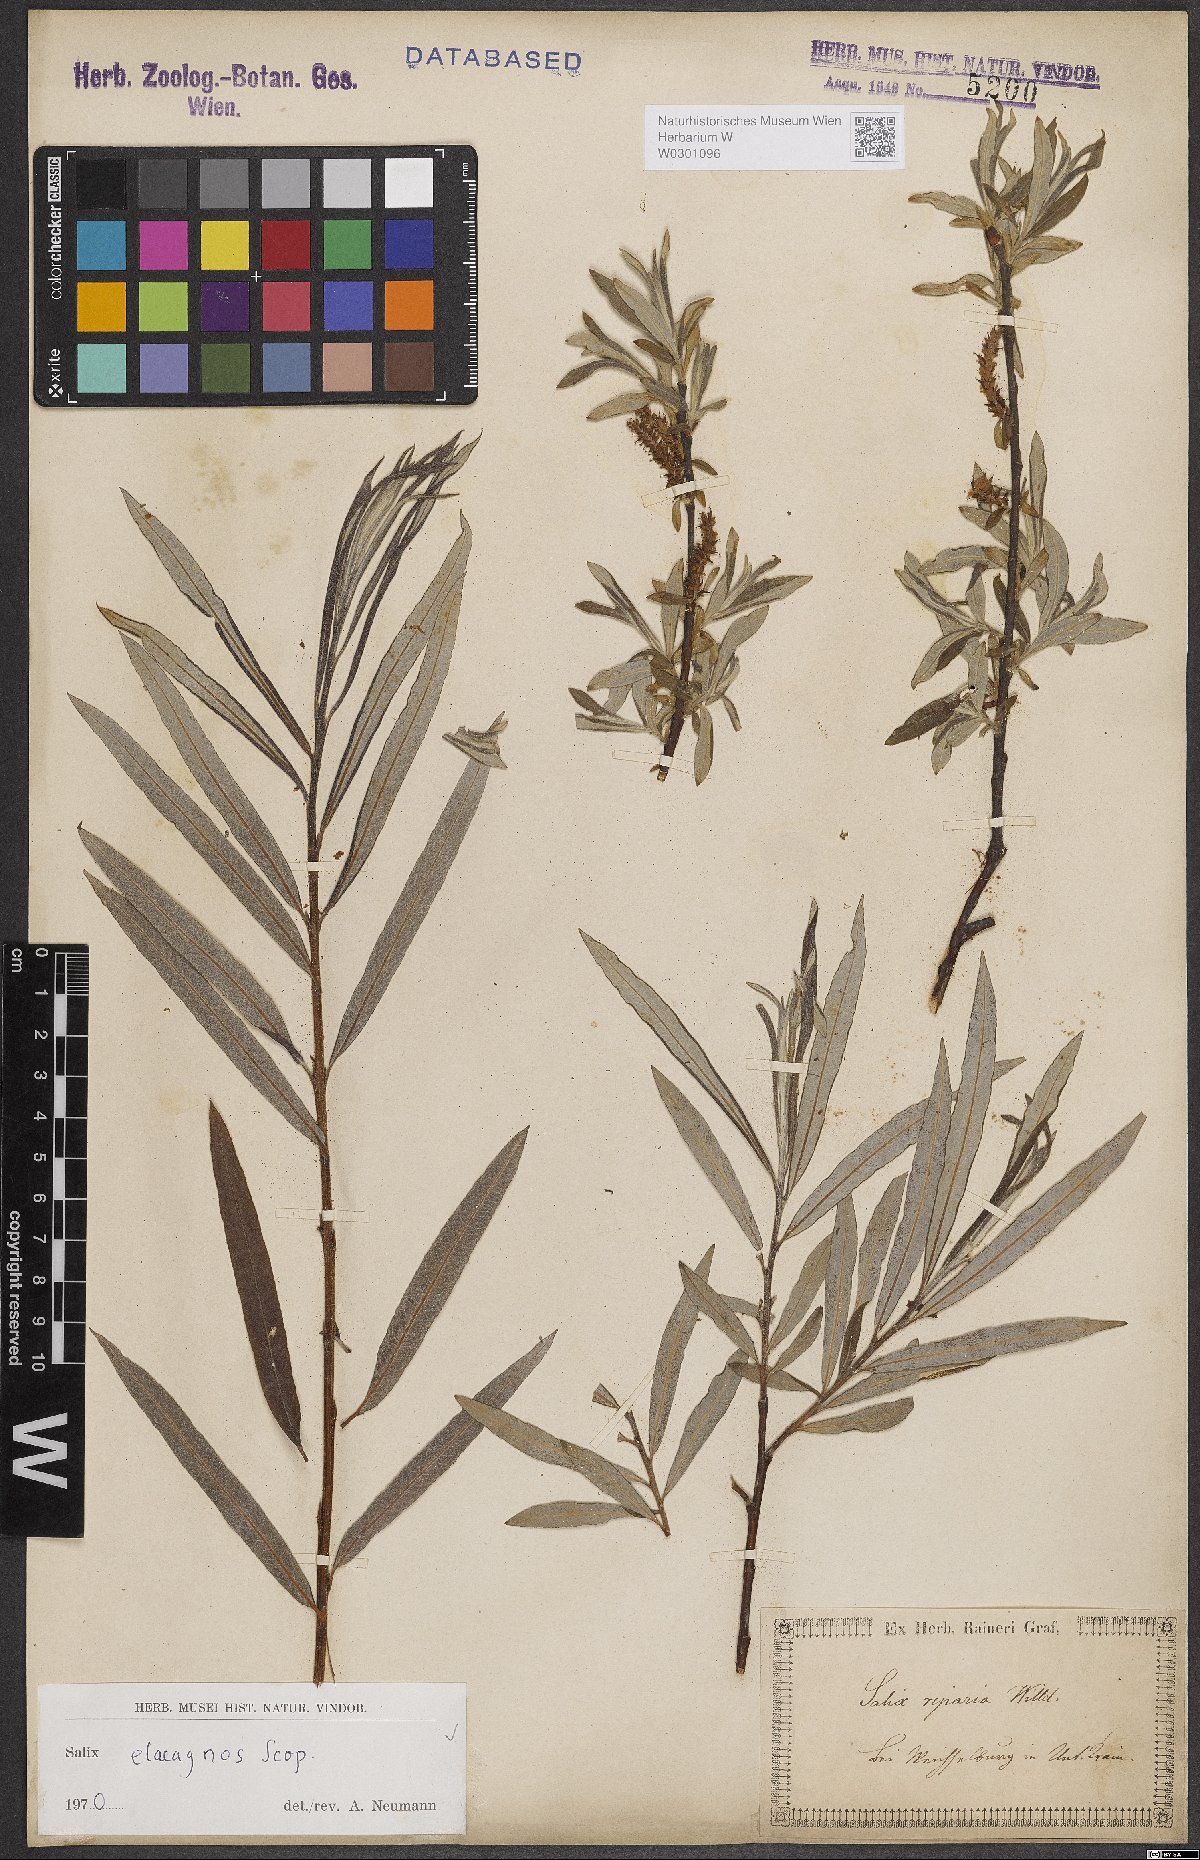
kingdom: Plantae
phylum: Tracheophyta
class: Magnoliopsida
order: Malpighiales
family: Salicaceae
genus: Salix
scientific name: Salix eleagnos
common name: Elaeagnus willow
